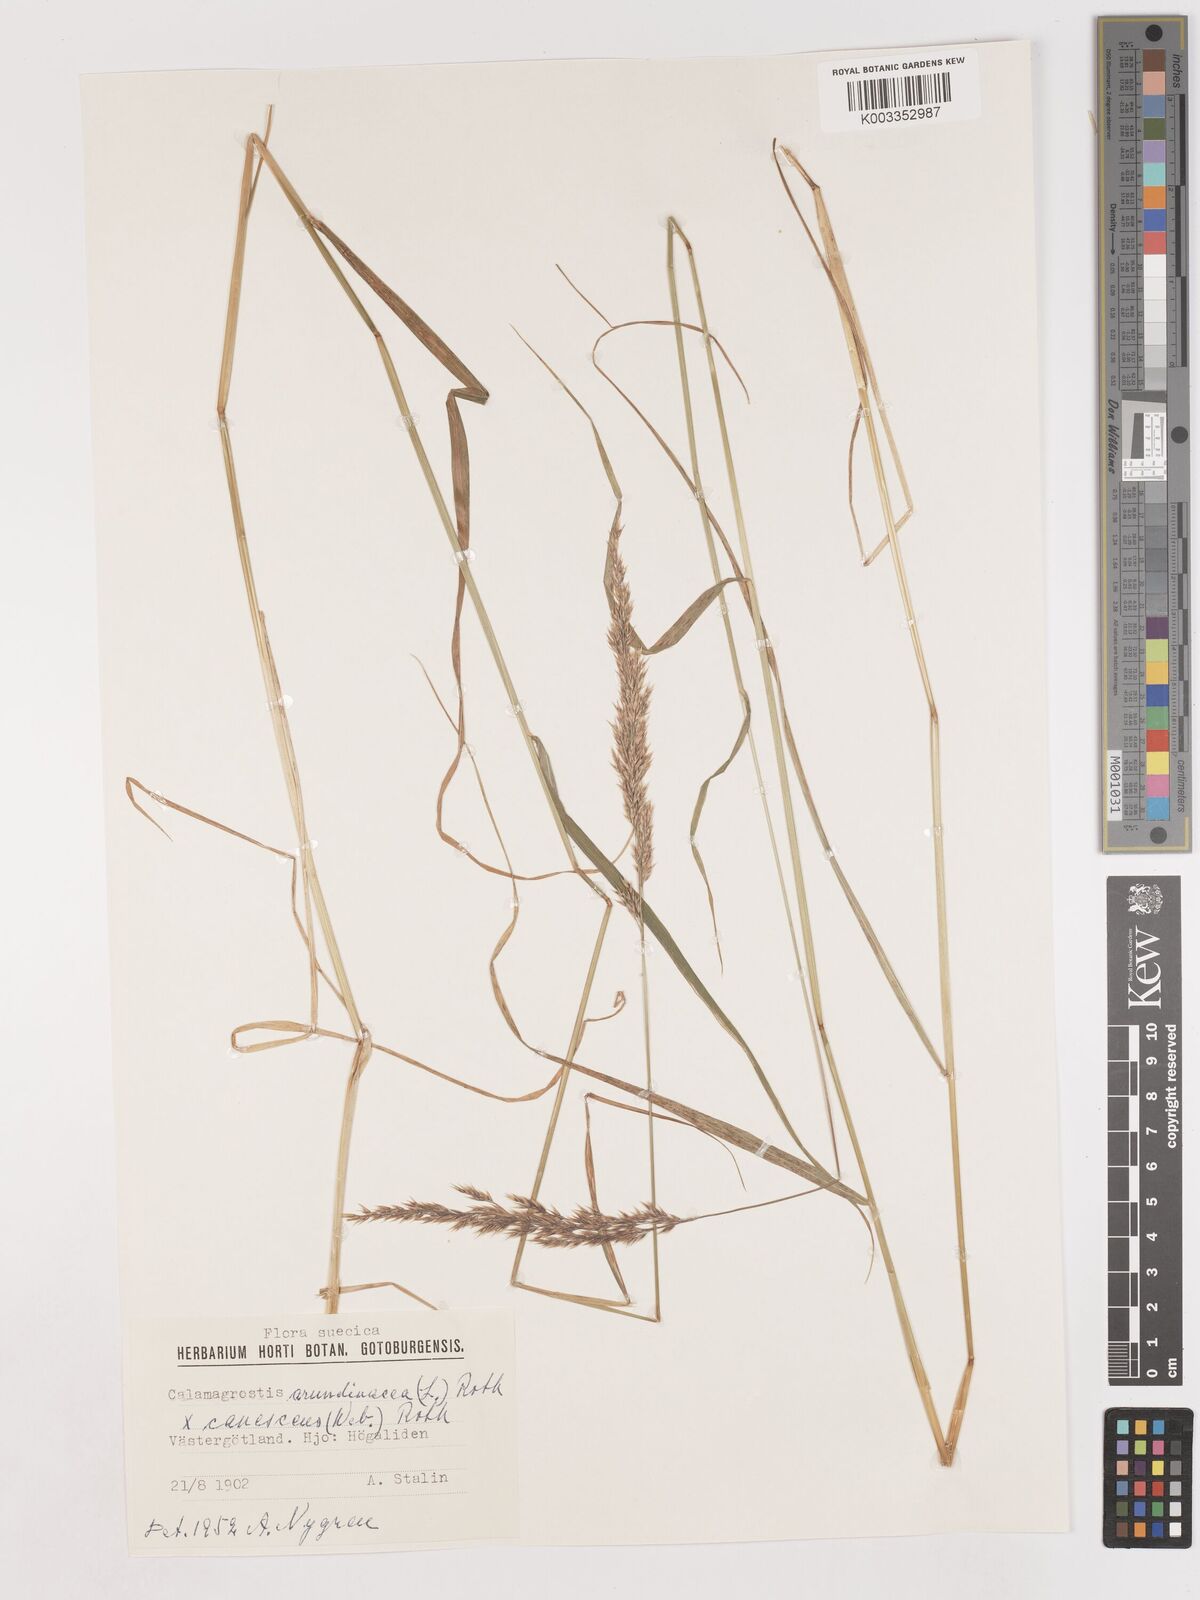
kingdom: Plantae
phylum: Tracheophyta
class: Liliopsida
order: Poales
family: Poaceae
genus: Calamagrostis
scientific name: Calamagrostis canescens
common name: Purple small-reed
